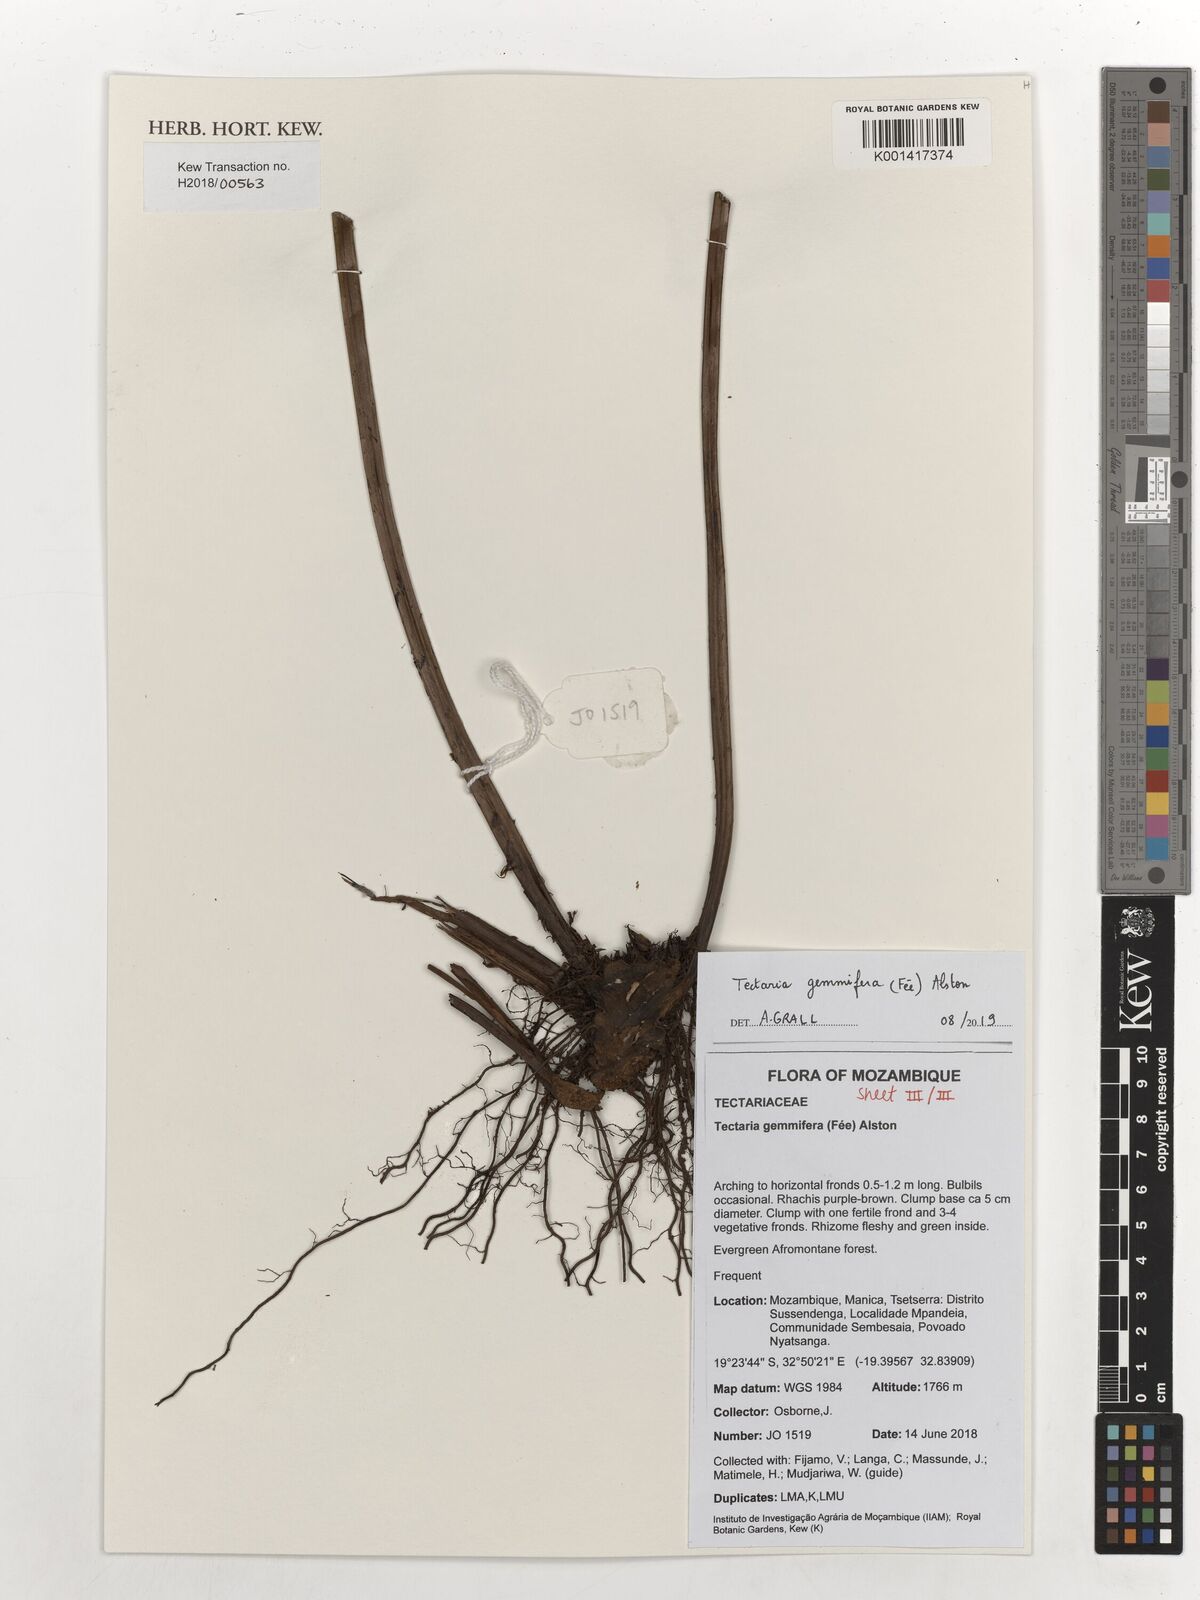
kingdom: Plantae
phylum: Tracheophyta
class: Polypodiopsida
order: Polypodiales
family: Tectariaceae
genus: Tectaria
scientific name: Tectaria gemmifera
